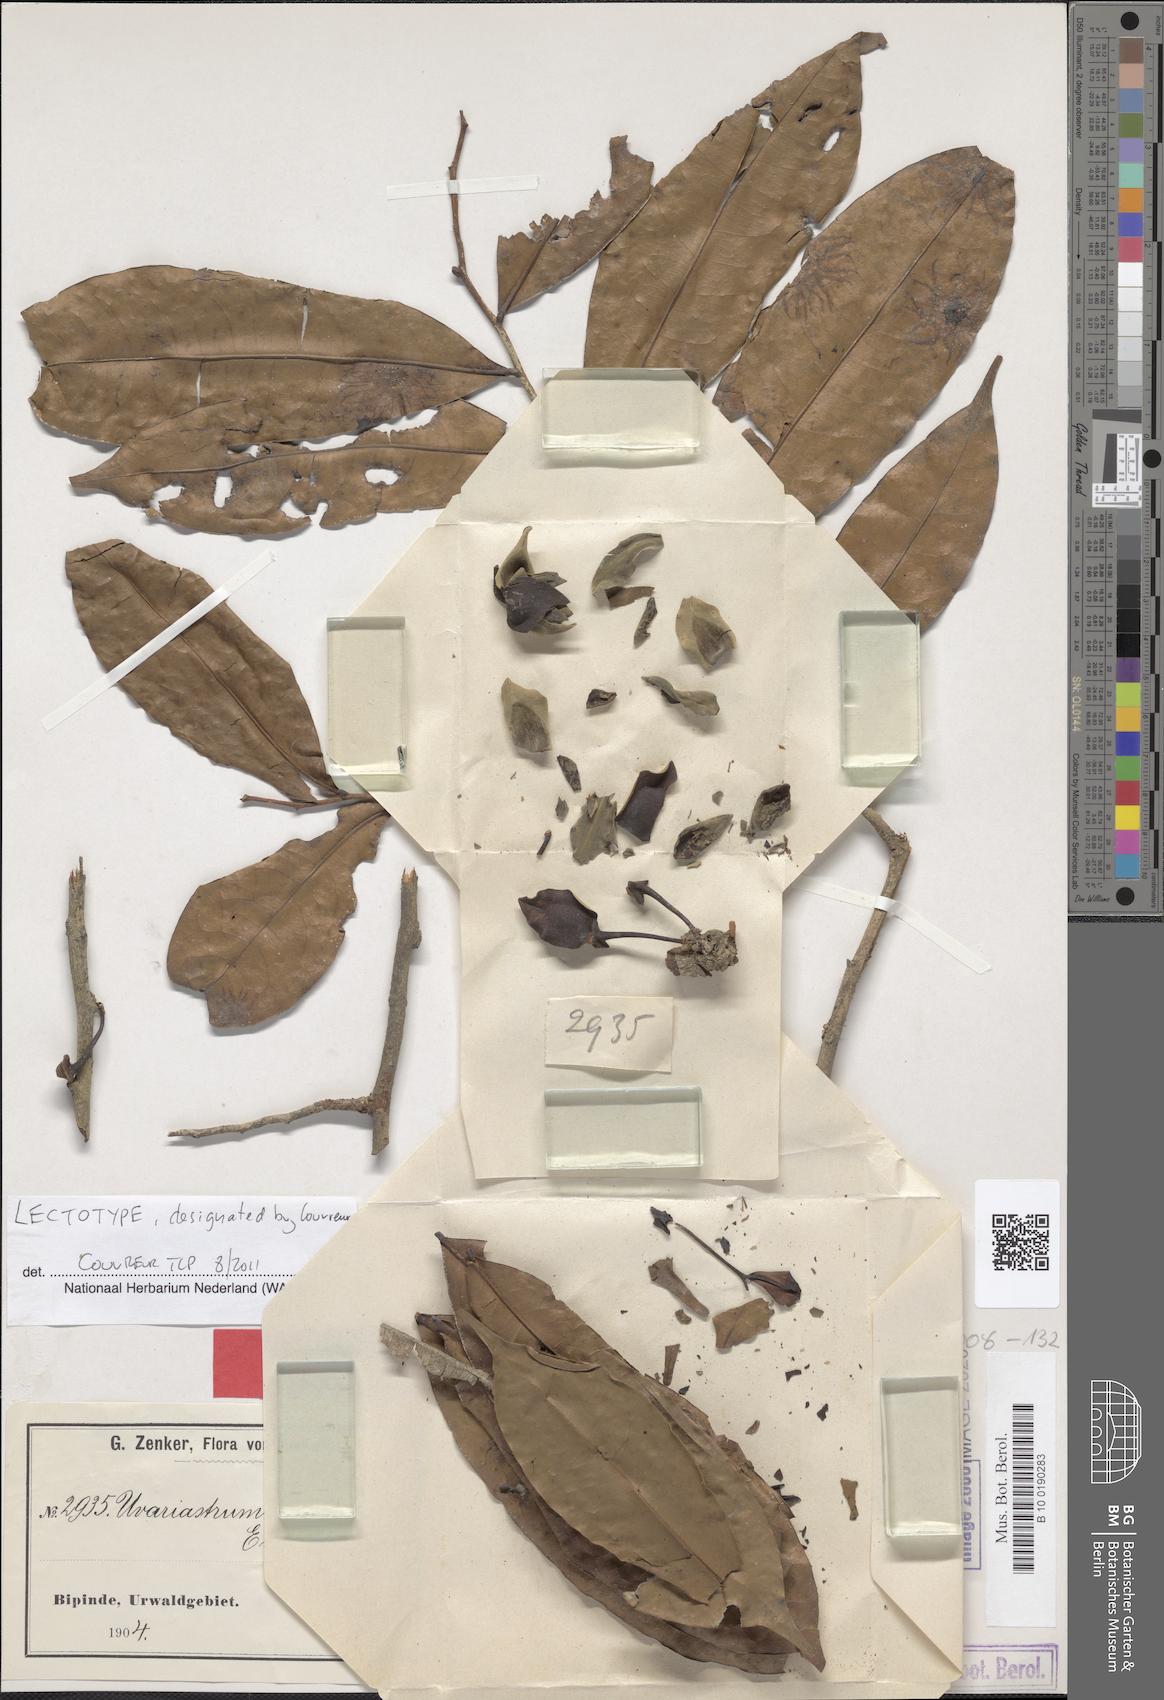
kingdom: Plantae
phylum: Tracheophyta
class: Magnoliopsida
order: Magnoliales
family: Annonaceae
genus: Uvariastrum
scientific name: Uvariastrum zenkeri
